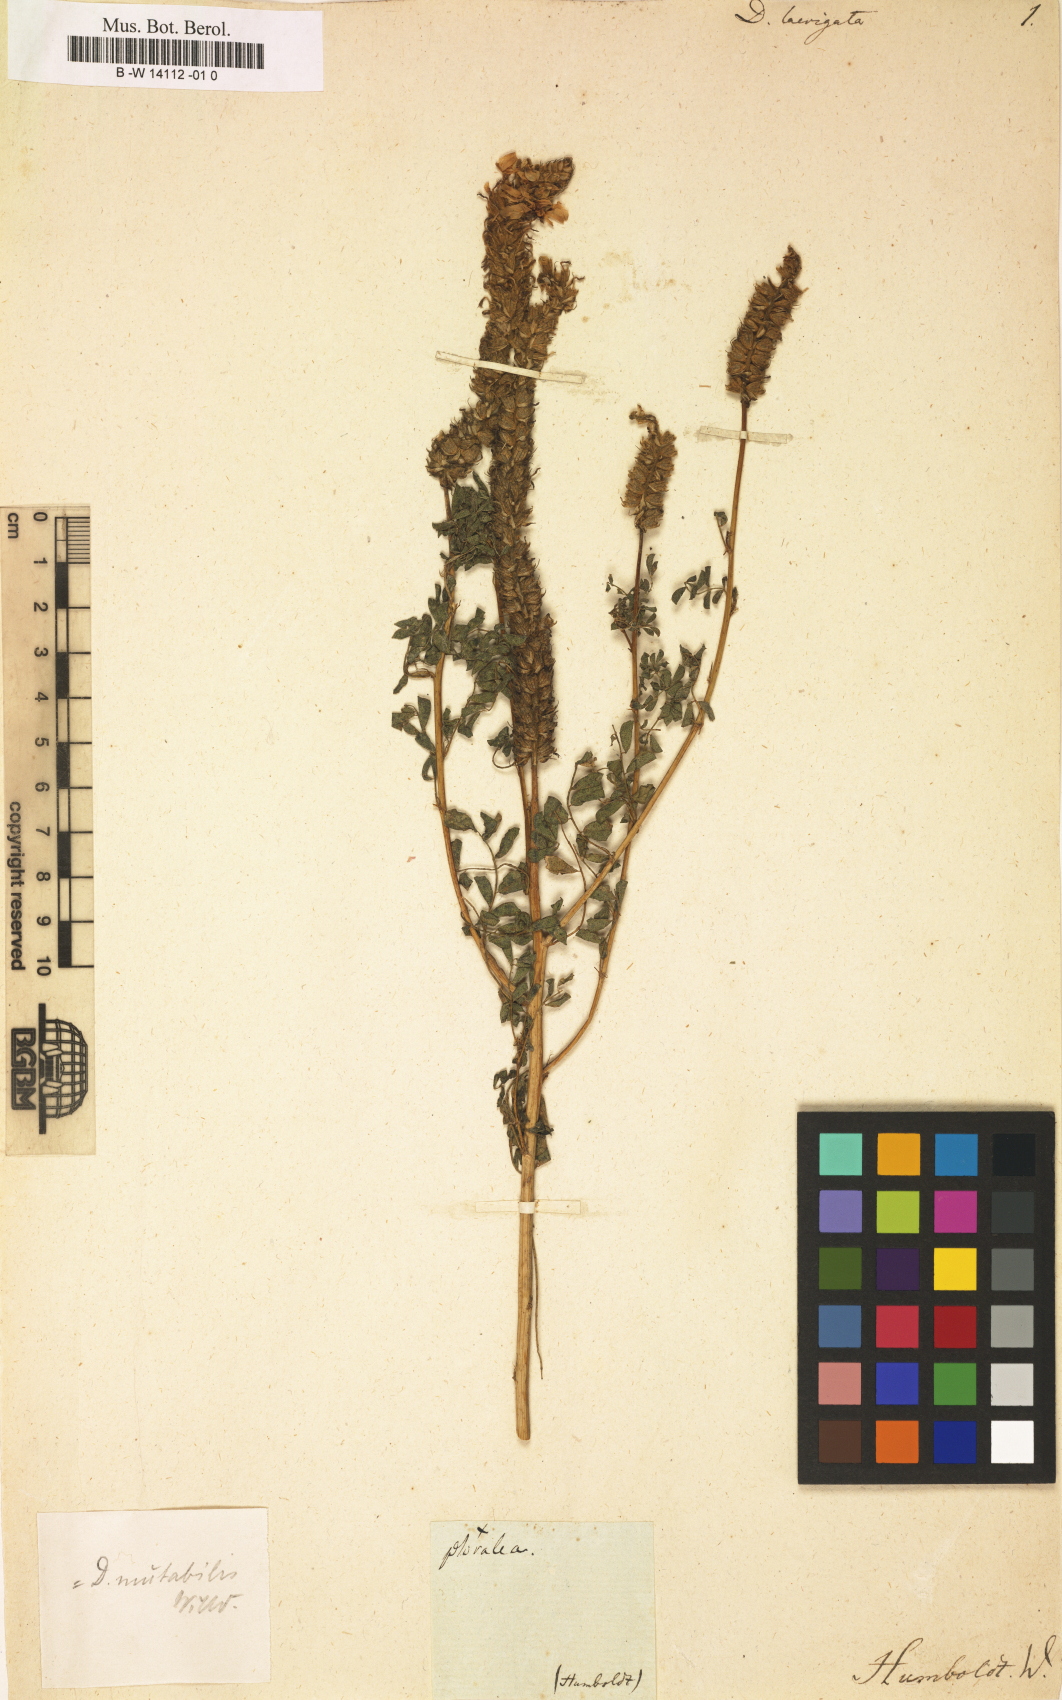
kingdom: Plantae
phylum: Tracheophyta
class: Magnoliopsida
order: Fabales
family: Fabaceae
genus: Dalea
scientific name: Dalea
